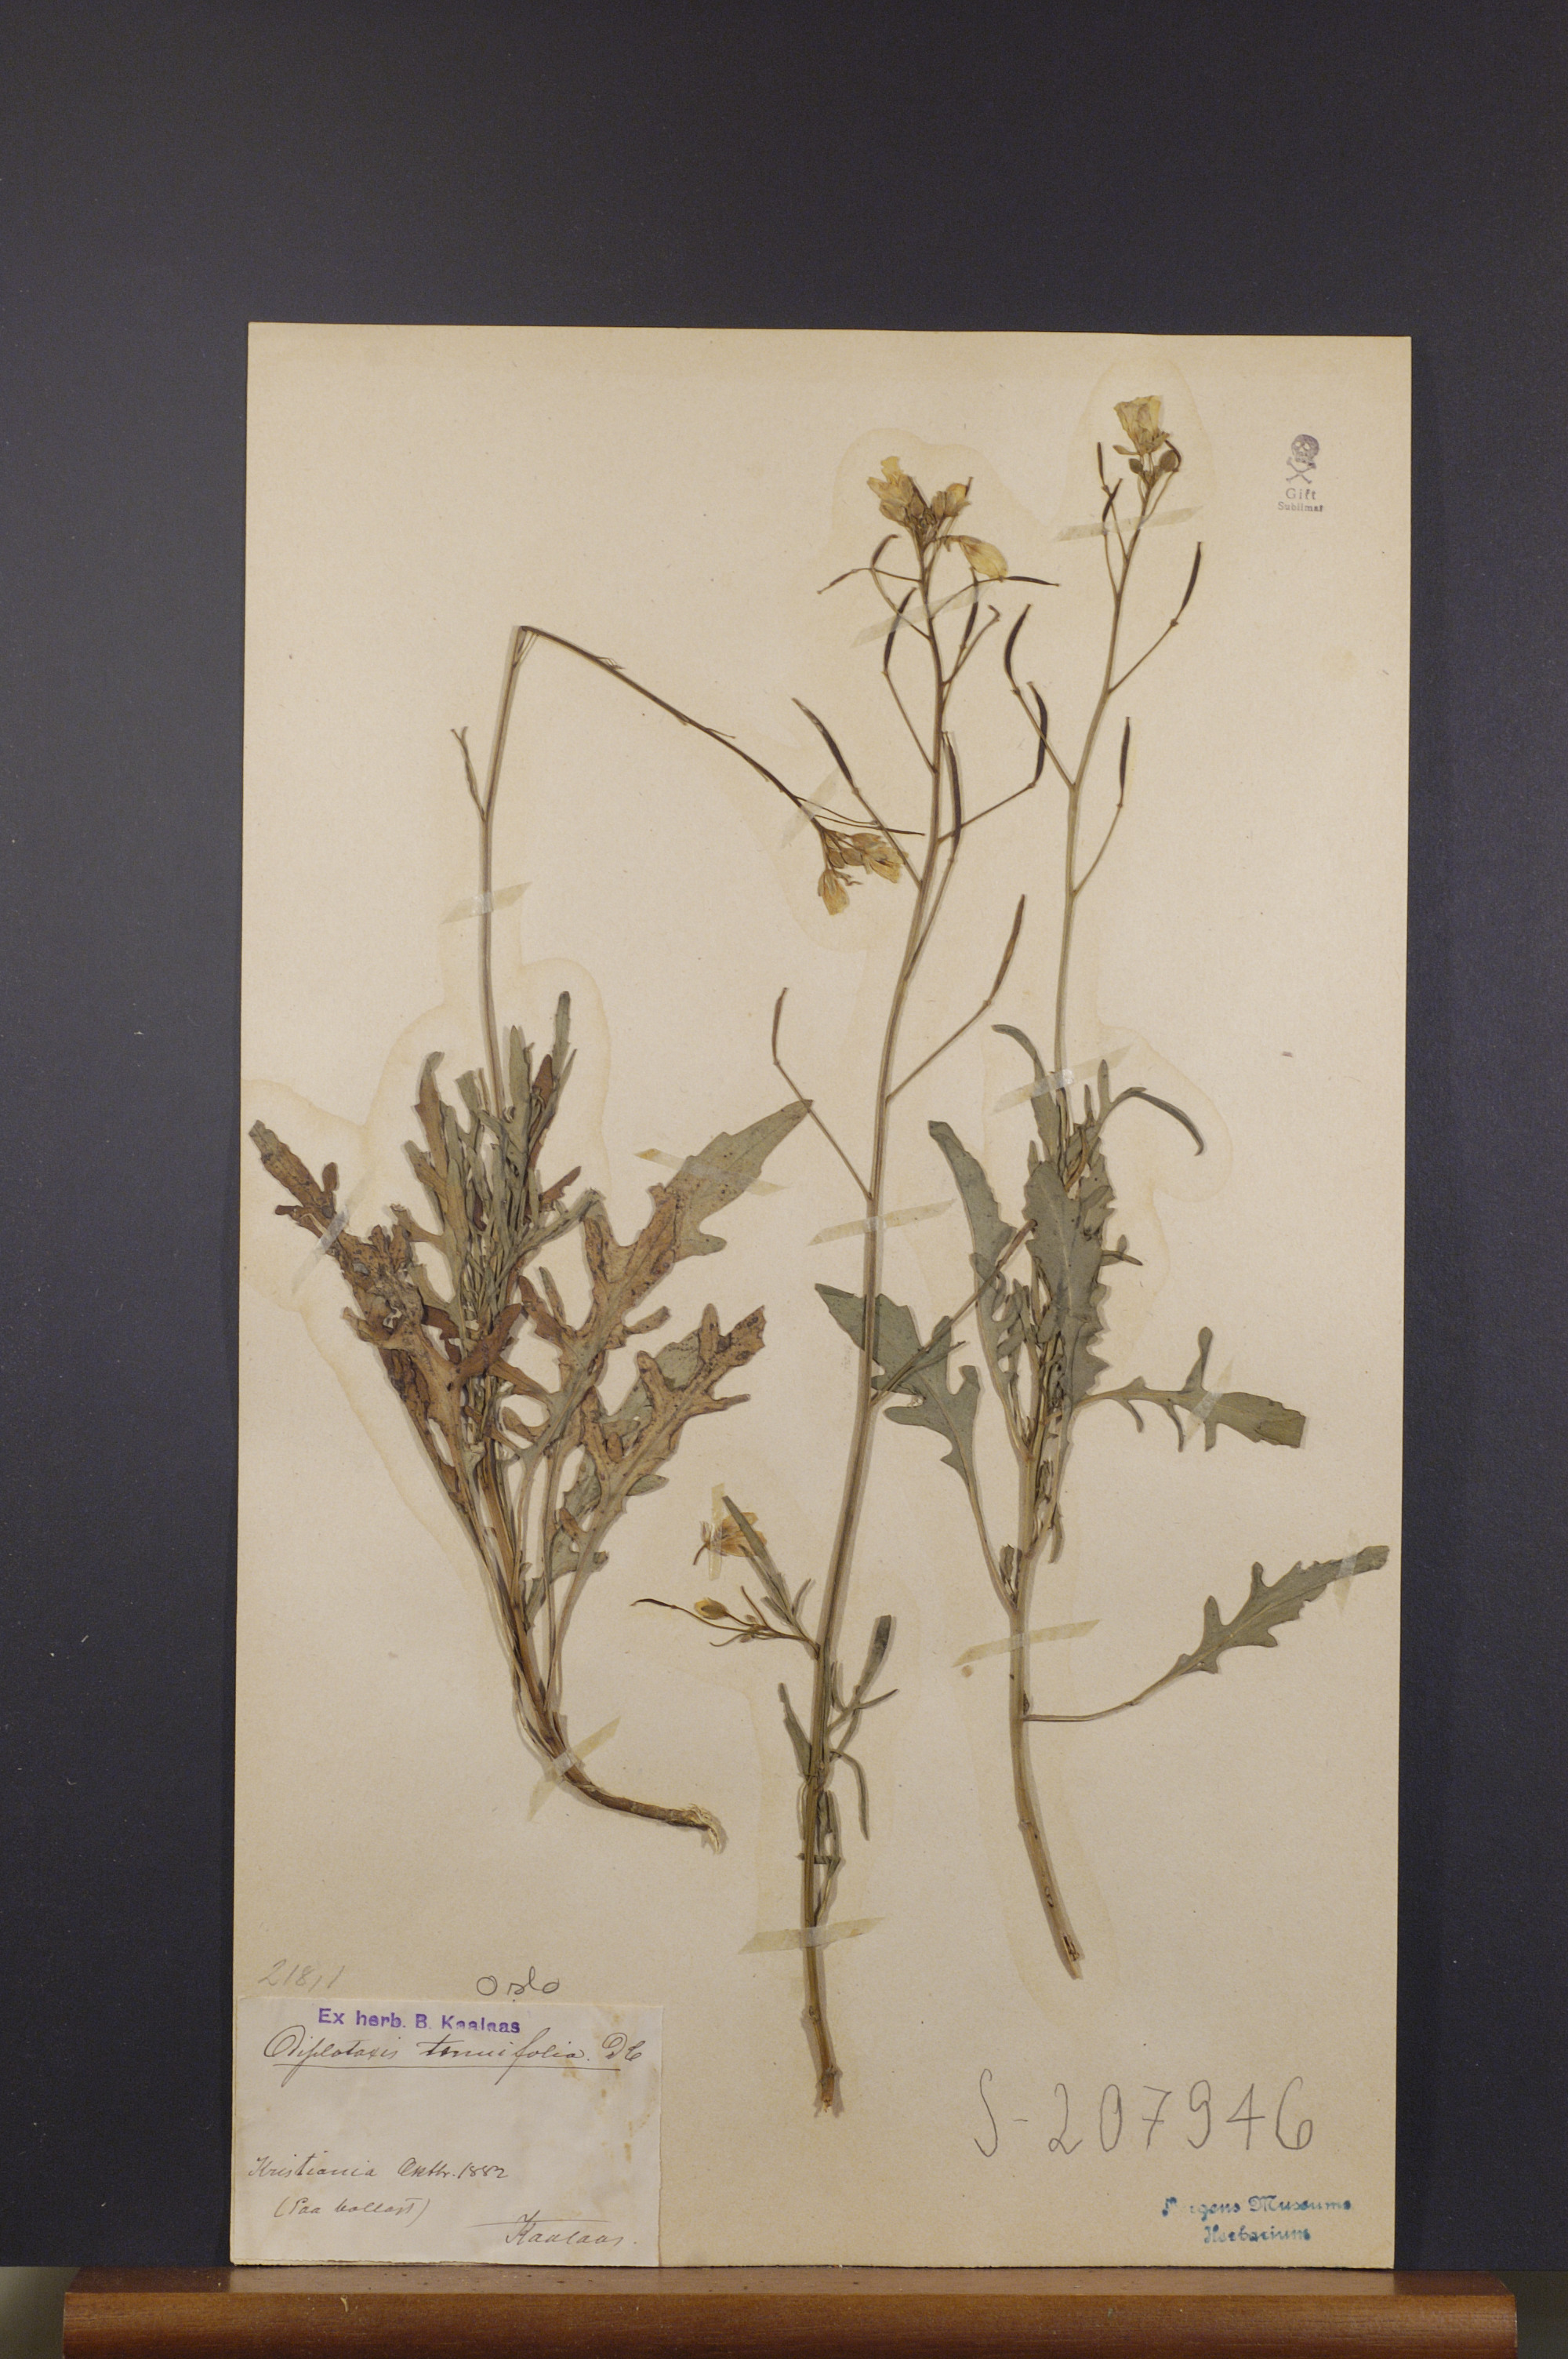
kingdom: Plantae
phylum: Tracheophyta
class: Magnoliopsida
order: Brassicales
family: Brassicaceae
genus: Diplotaxis
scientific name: Diplotaxis tenuifolia
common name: Perennial wall-rocket
